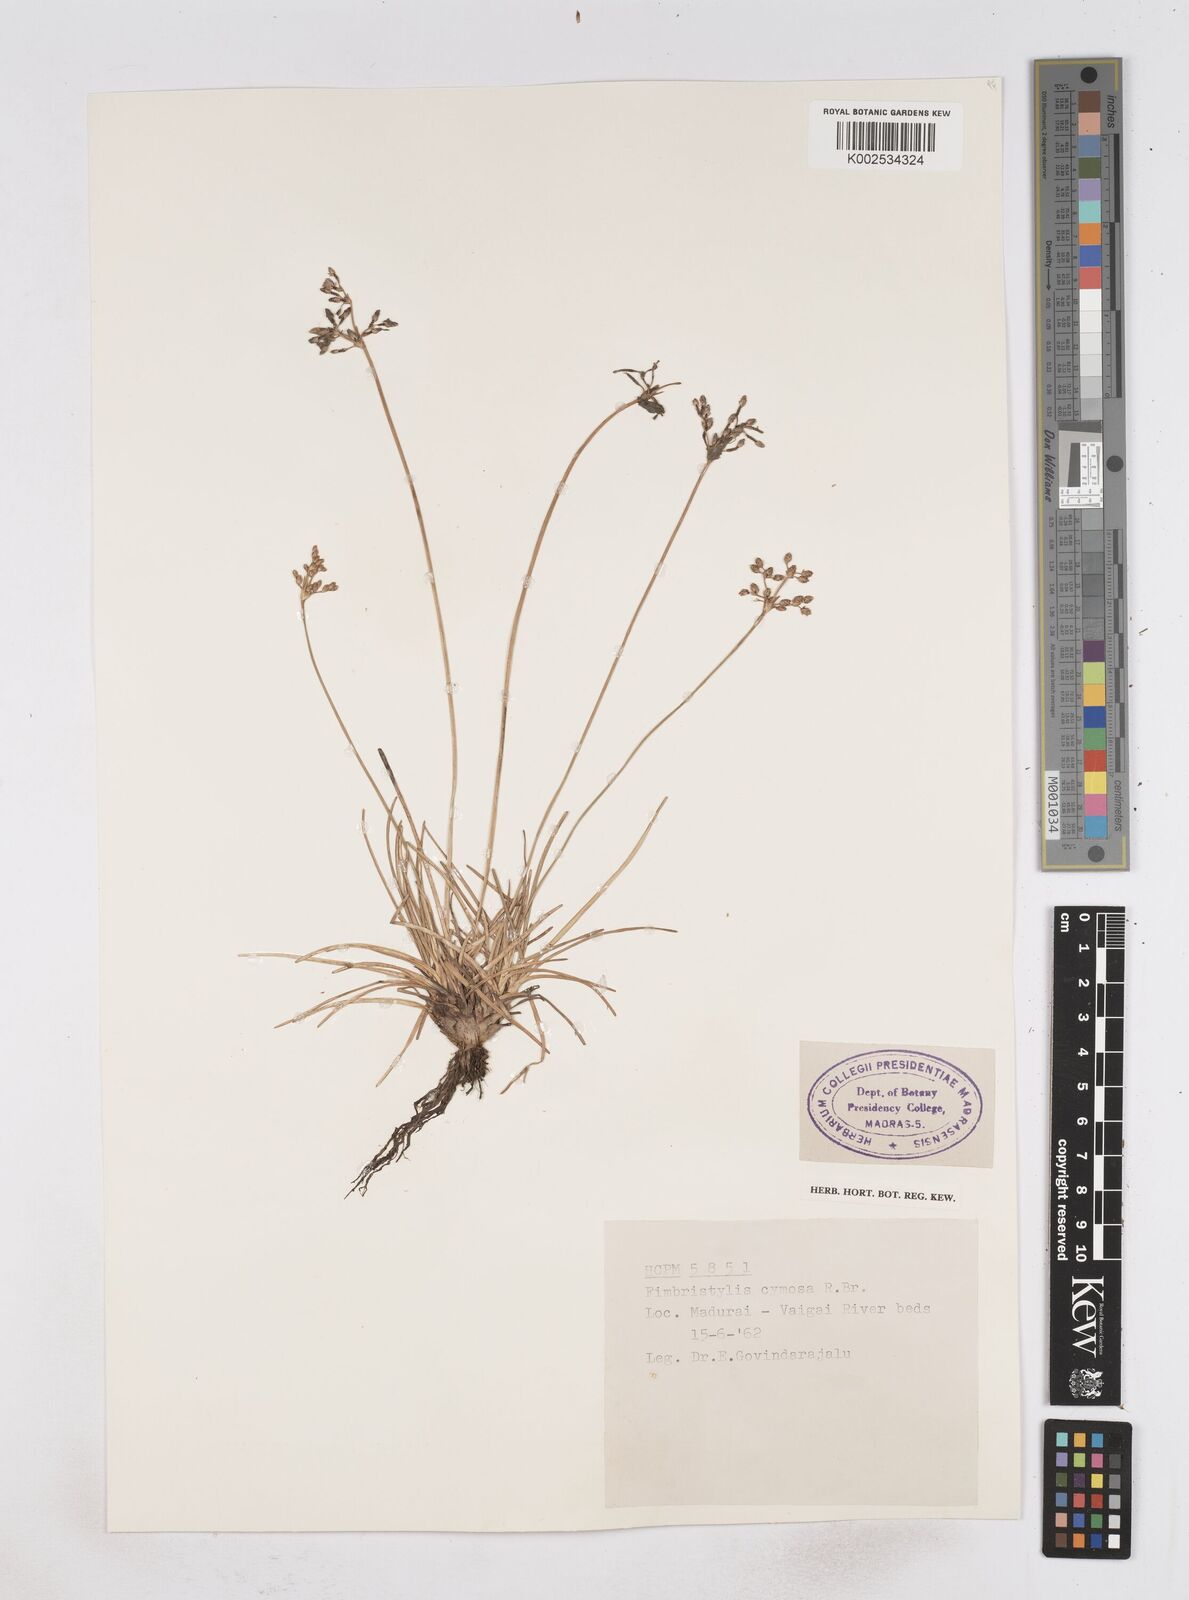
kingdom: Plantae
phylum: Tracheophyta
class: Liliopsida
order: Poales
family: Cyperaceae
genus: Fimbristylis
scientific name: Fimbristylis cymosa
